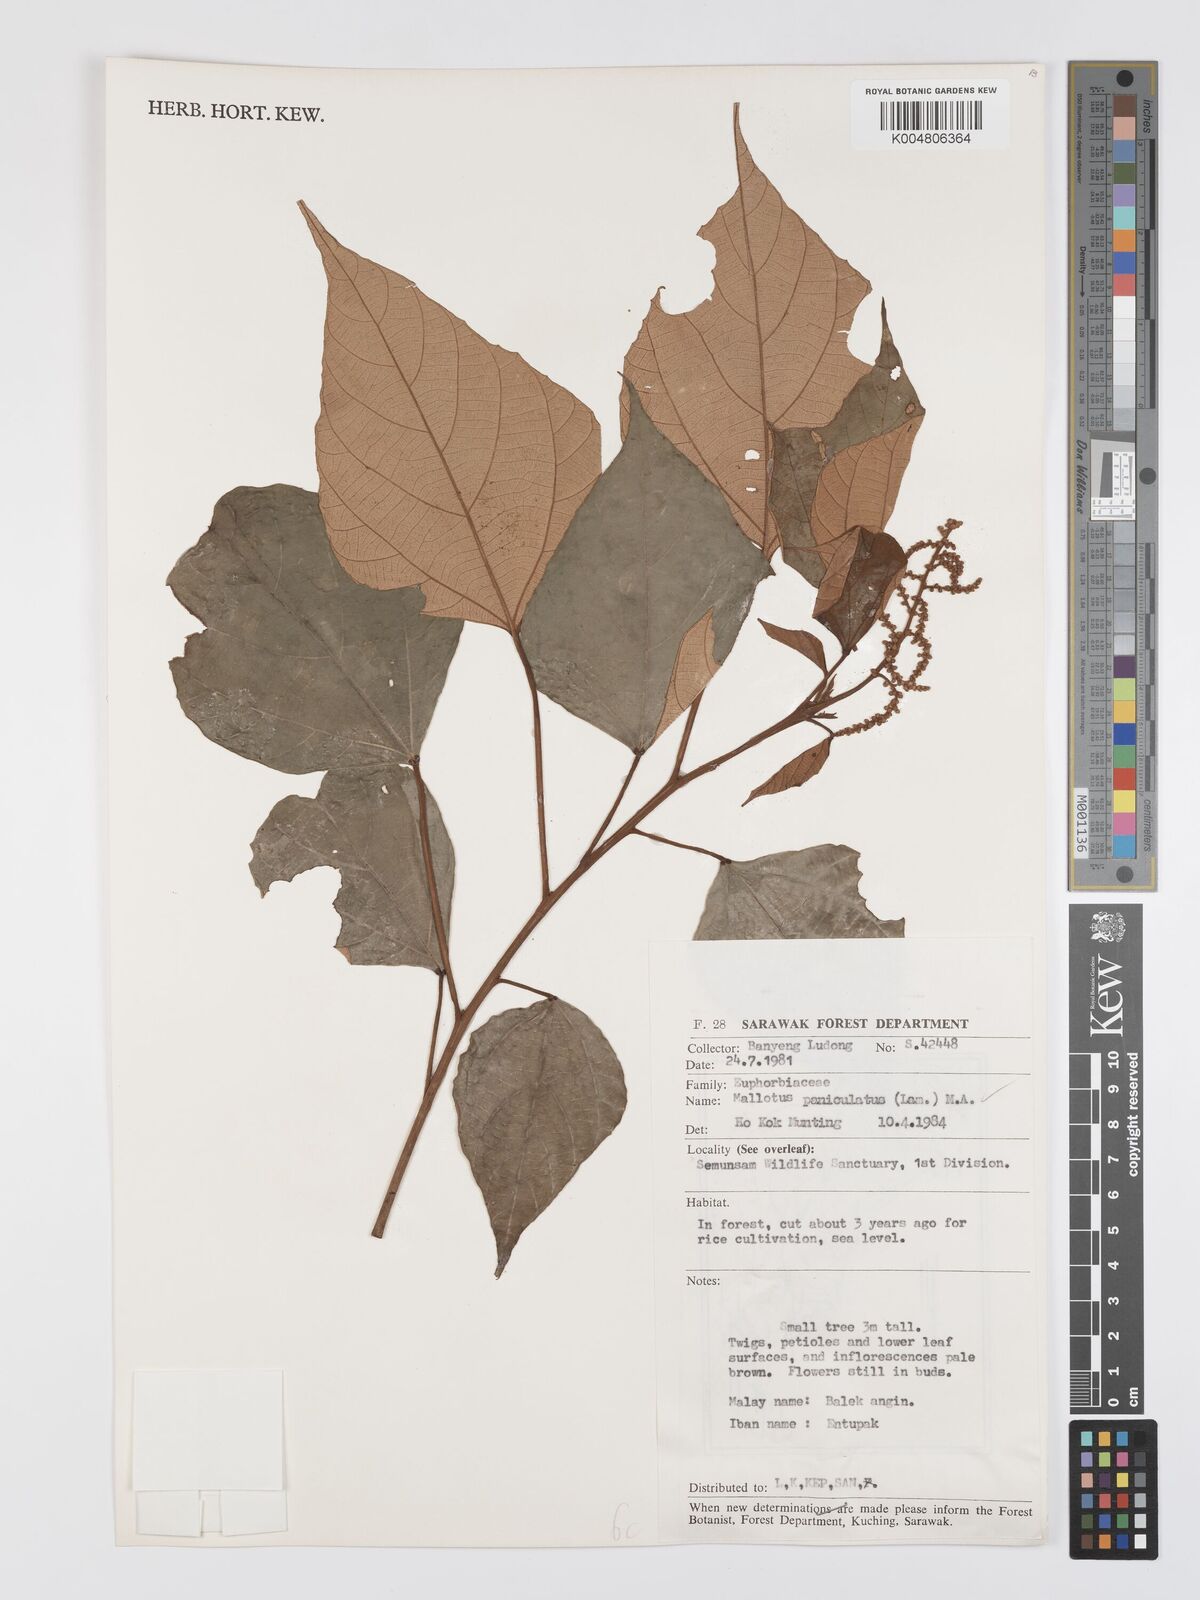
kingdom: Plantae
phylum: Tracheophyta
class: Magnoliopsida
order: Malpighiales
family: Euphorbiaceae
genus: Mallotus
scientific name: Mallotus paniculatus
